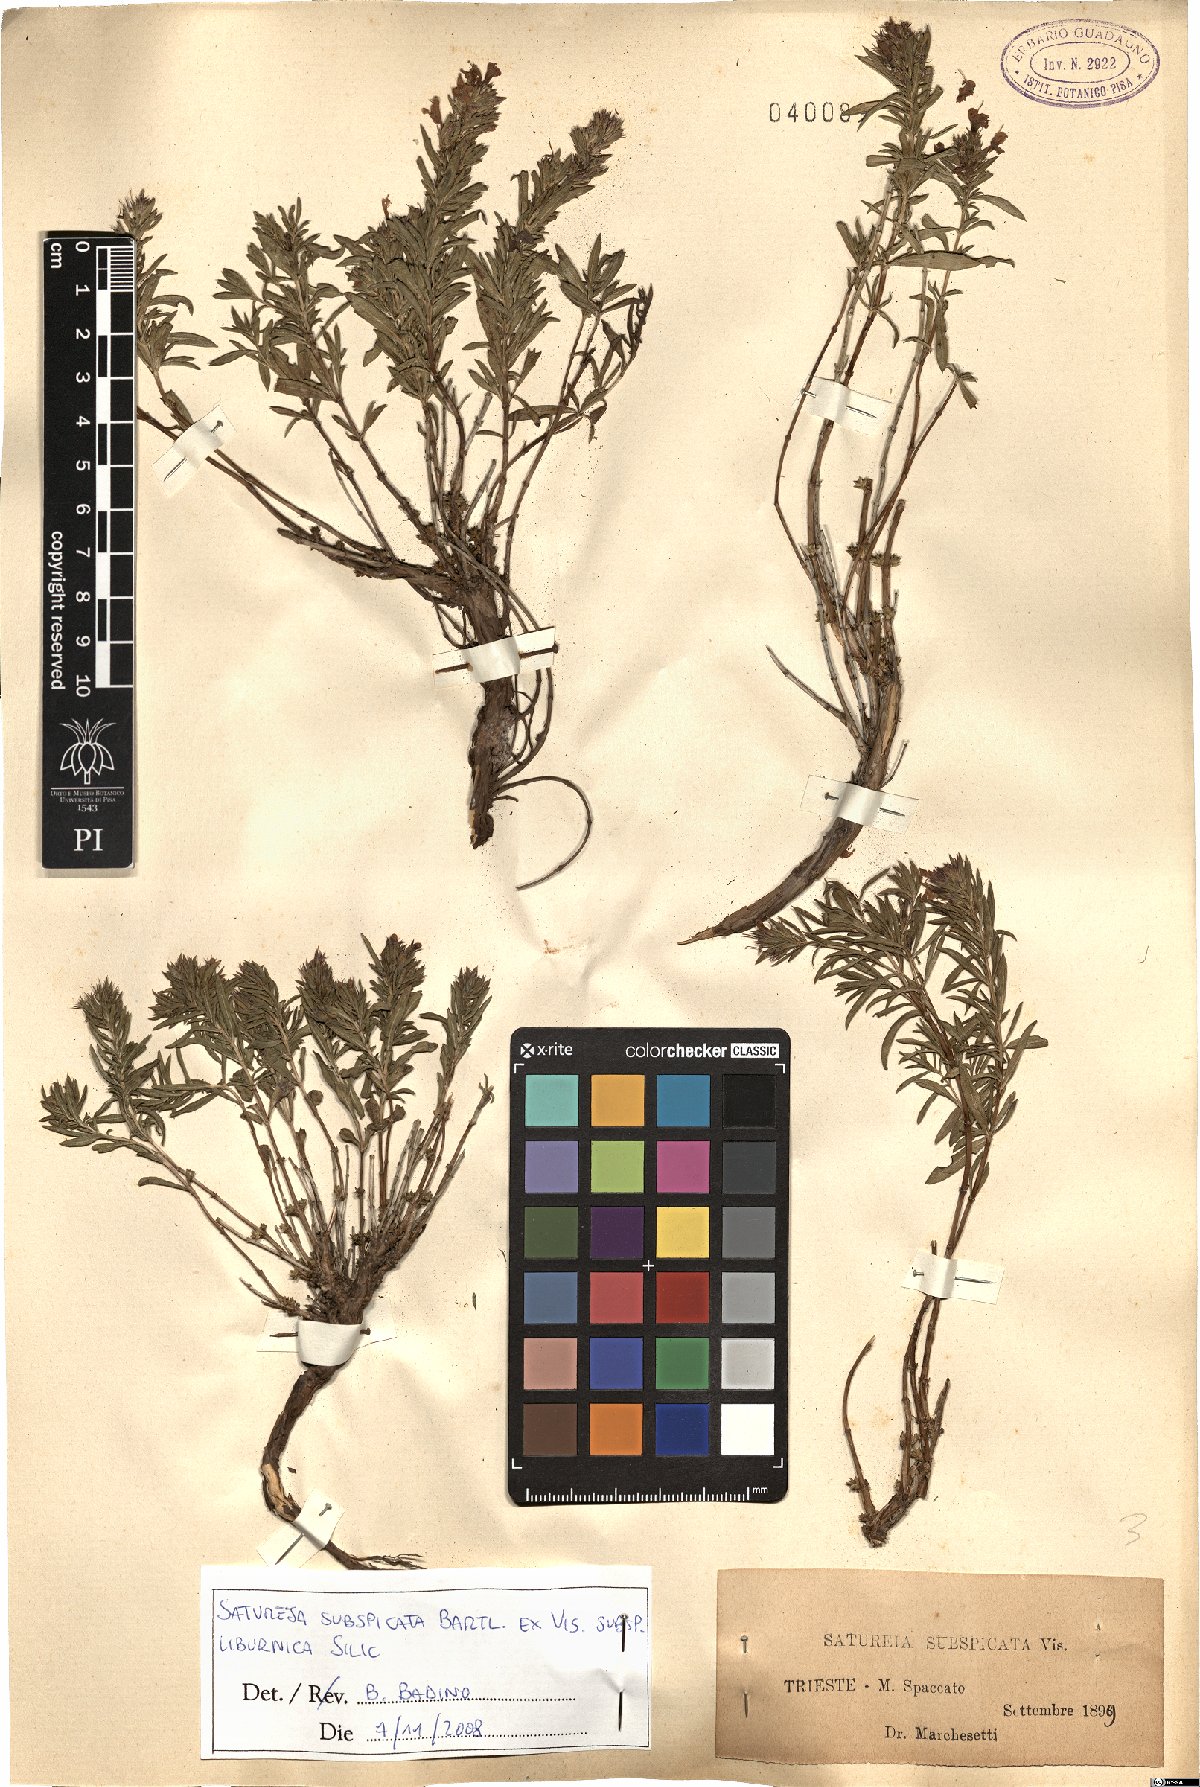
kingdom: Plantae
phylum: Tracheophyta
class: Magnoliopsida
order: Lamiales
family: Lamiaceae
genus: Satureja
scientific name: Satureja subspicata
